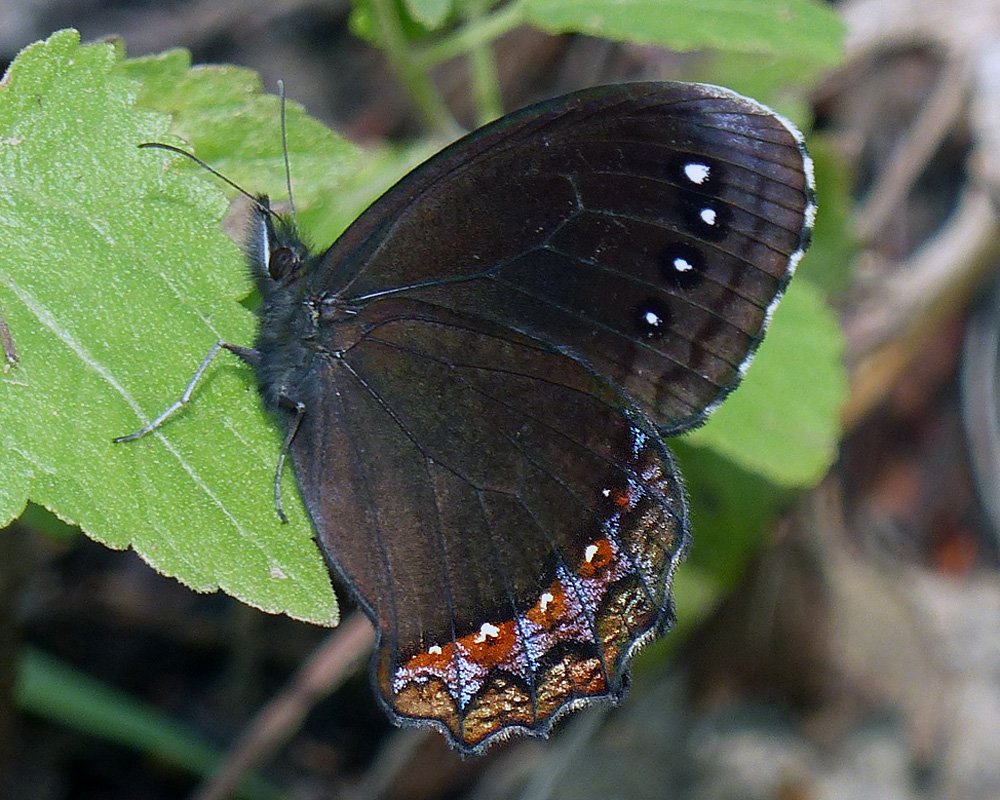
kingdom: Animalia
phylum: Arthropoda
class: Insecta
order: Lepidoptera
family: Nymphalidae
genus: Gyrocheilus
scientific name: Gyrocheilus patrobas
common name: Red-bordered Satyr
